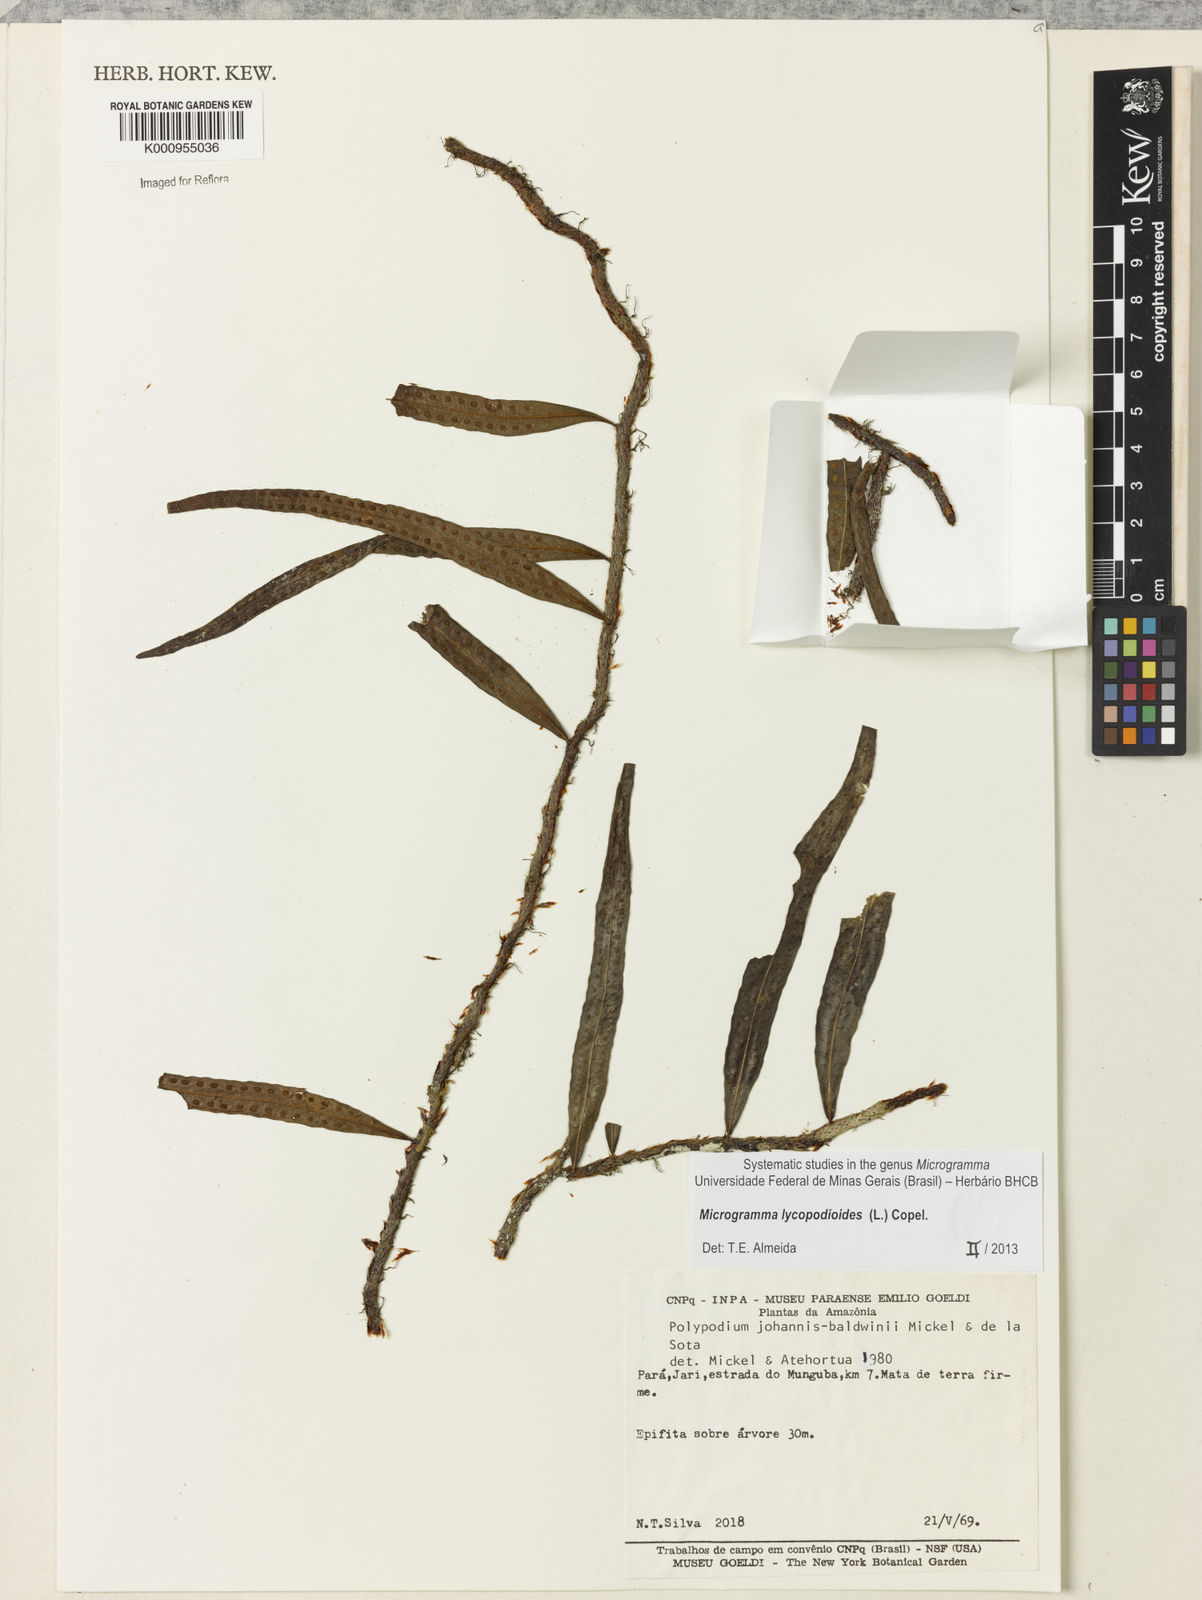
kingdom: Plantae
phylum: Tracheophyta
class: Polypodiopsida
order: Polypodiales
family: Polypodiaceae
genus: Microgramma
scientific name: Microgramma lycopodioides
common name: Bastard catclaw
